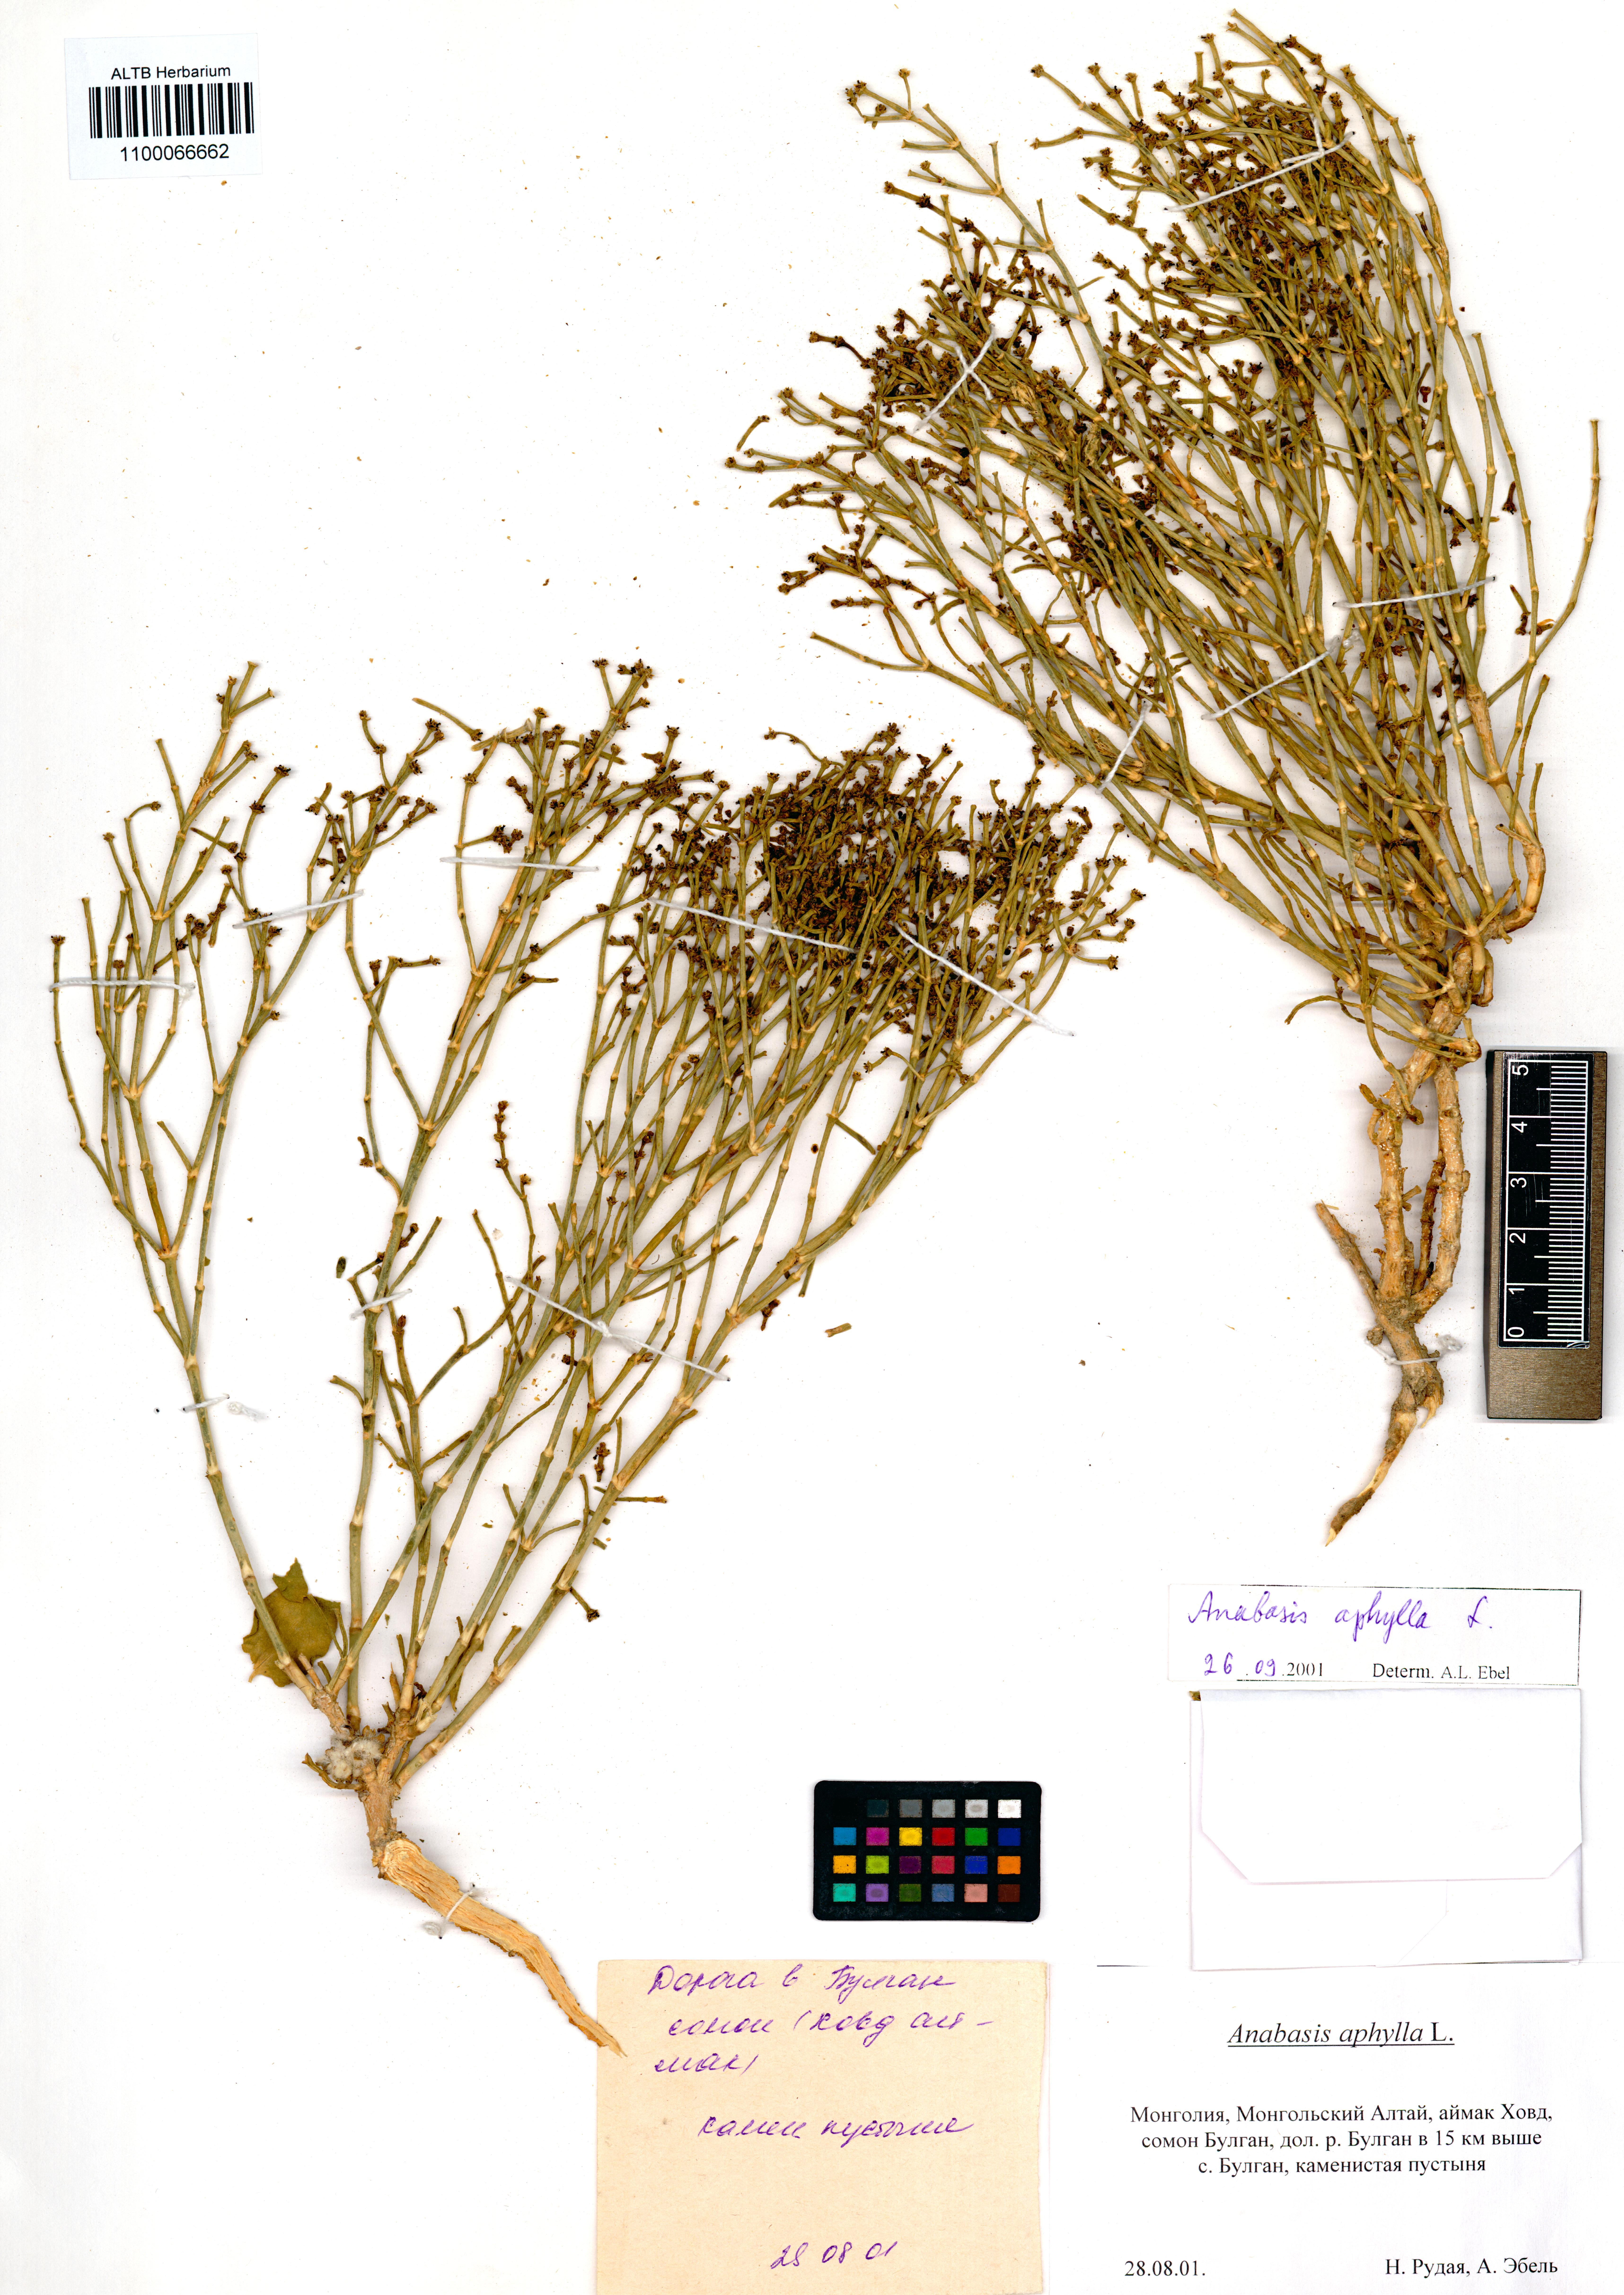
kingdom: Plantae
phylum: Tracheophyta
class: Magnoliopsida
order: Caryophyllales
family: Amaranthaceae
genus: Anabasis
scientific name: Anabasis aphylla
